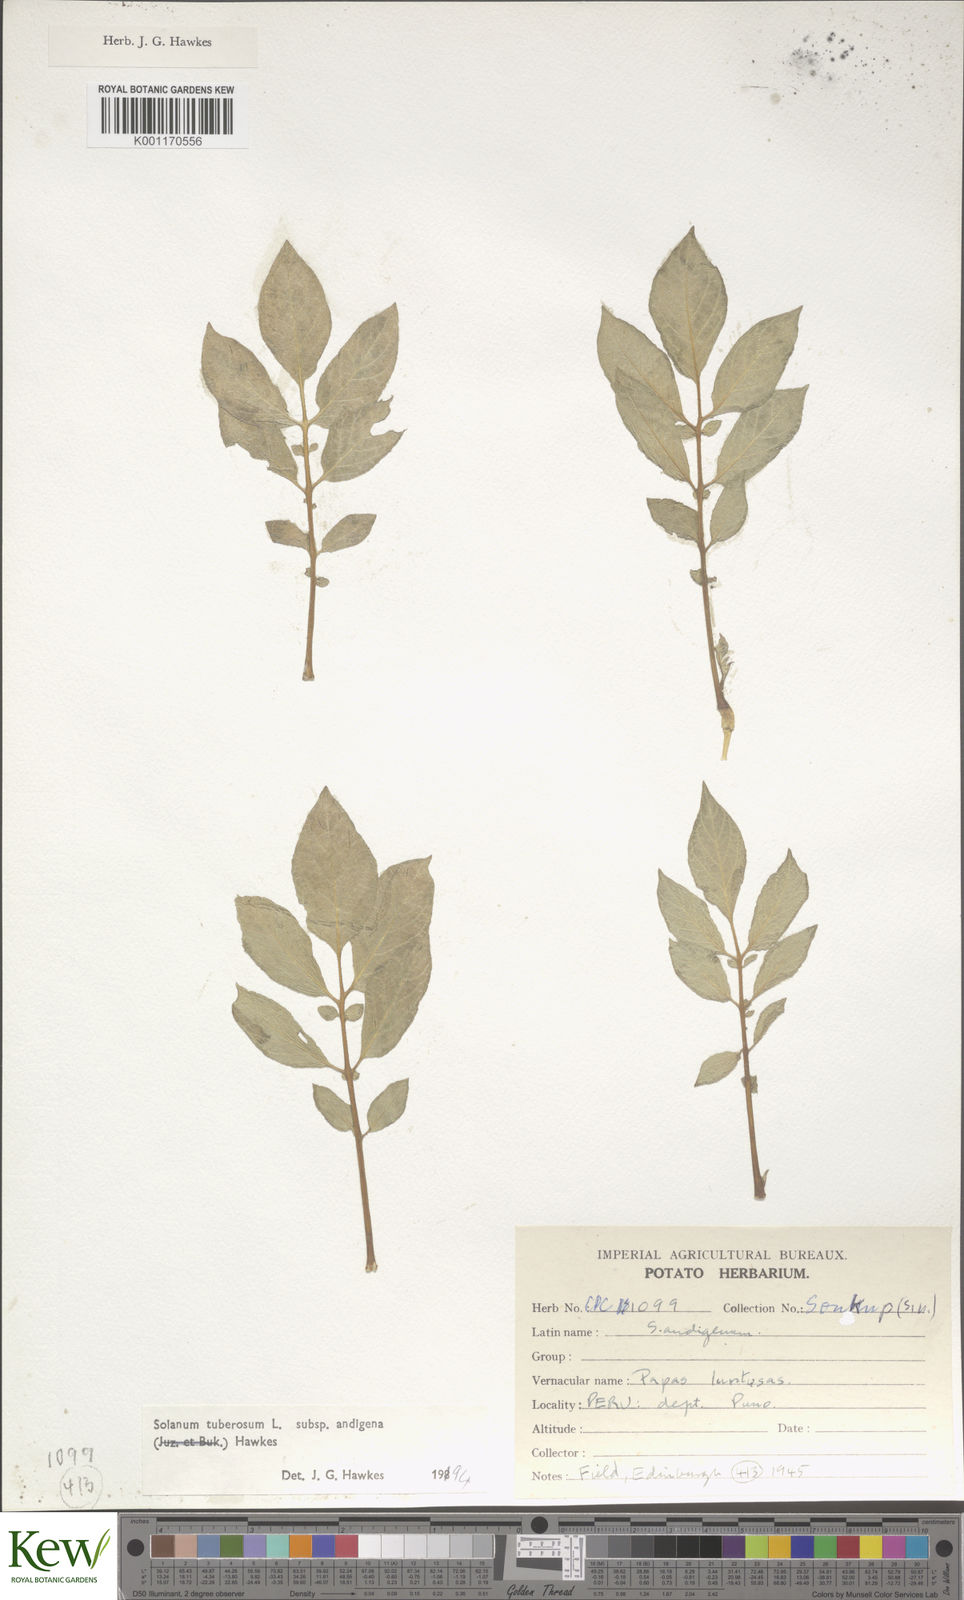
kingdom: Plantae
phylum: Tracheophyta
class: Magnoliopsida
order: Solanales
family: Solanaceae
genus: Solanum
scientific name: Solanum tuberosum
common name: Potato
